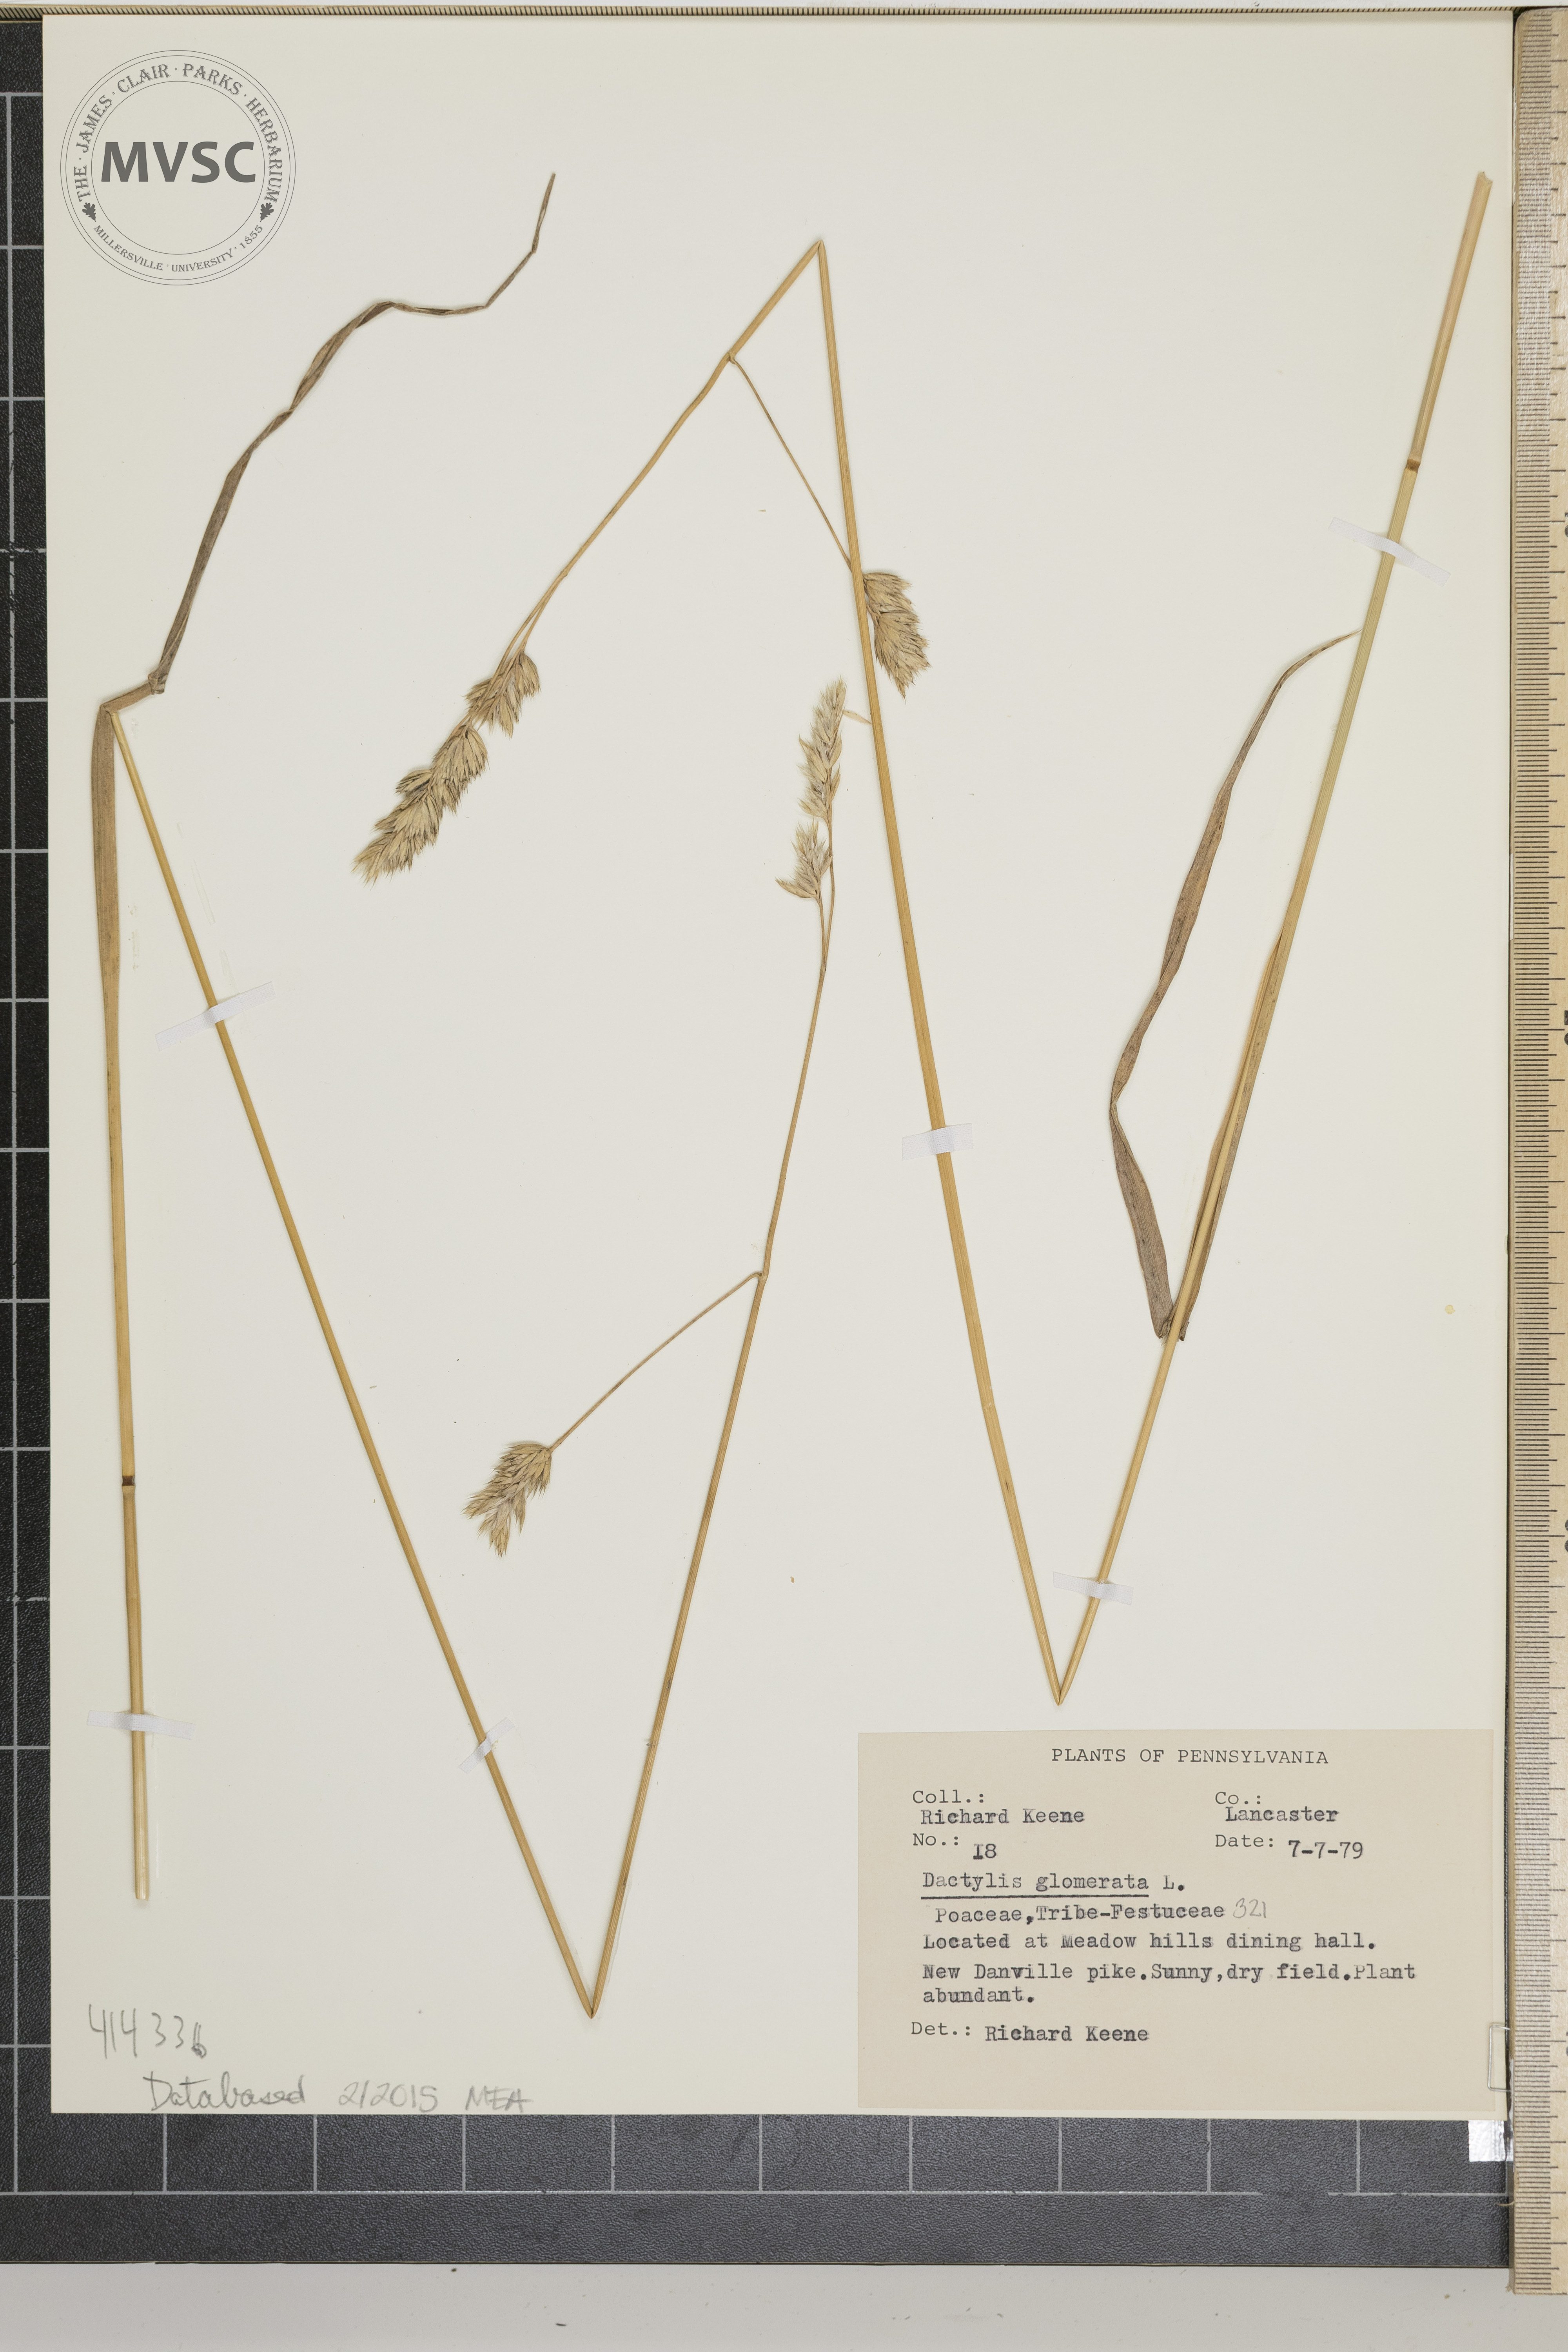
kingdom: Plantae
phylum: Tracheophyta
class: Liliopsida
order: Poales
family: Poaceae
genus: Dactylis
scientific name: Dactylis glomerata
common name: orchard grass
